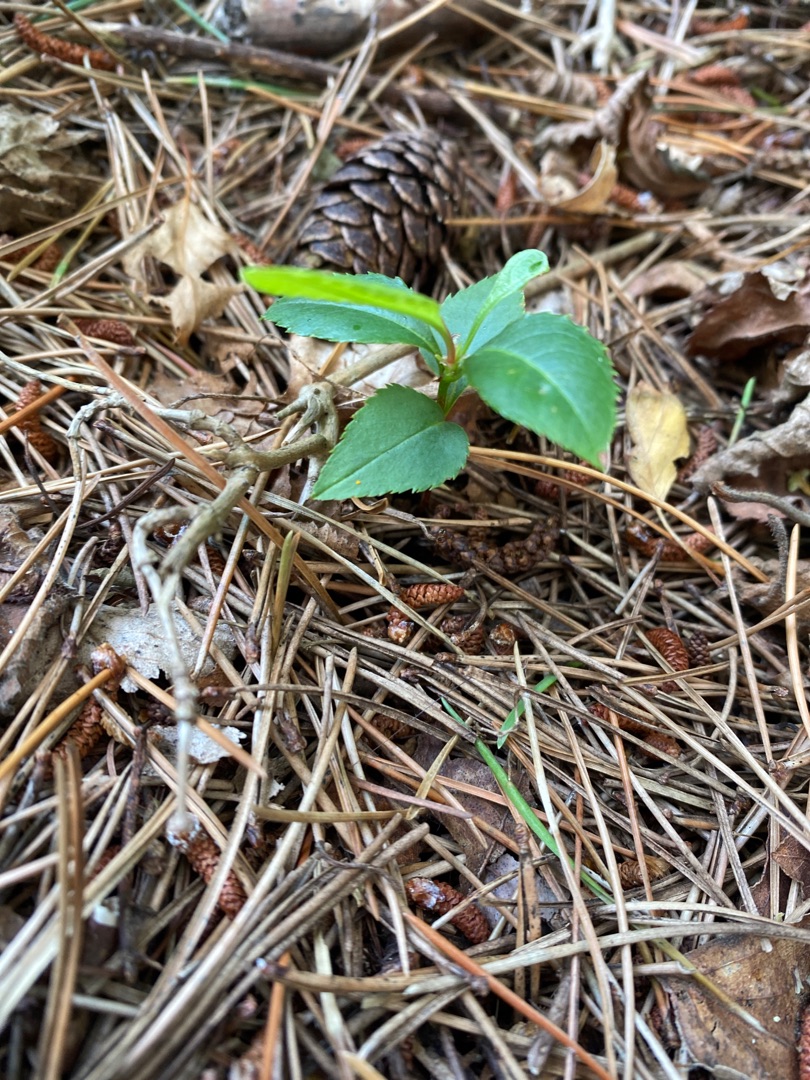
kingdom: Plantae
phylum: Tracheophyta
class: Magnoliopsida
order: Rosales
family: Rosaceae
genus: Prunus
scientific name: Prunus serotina
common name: Glansbladet hæg
